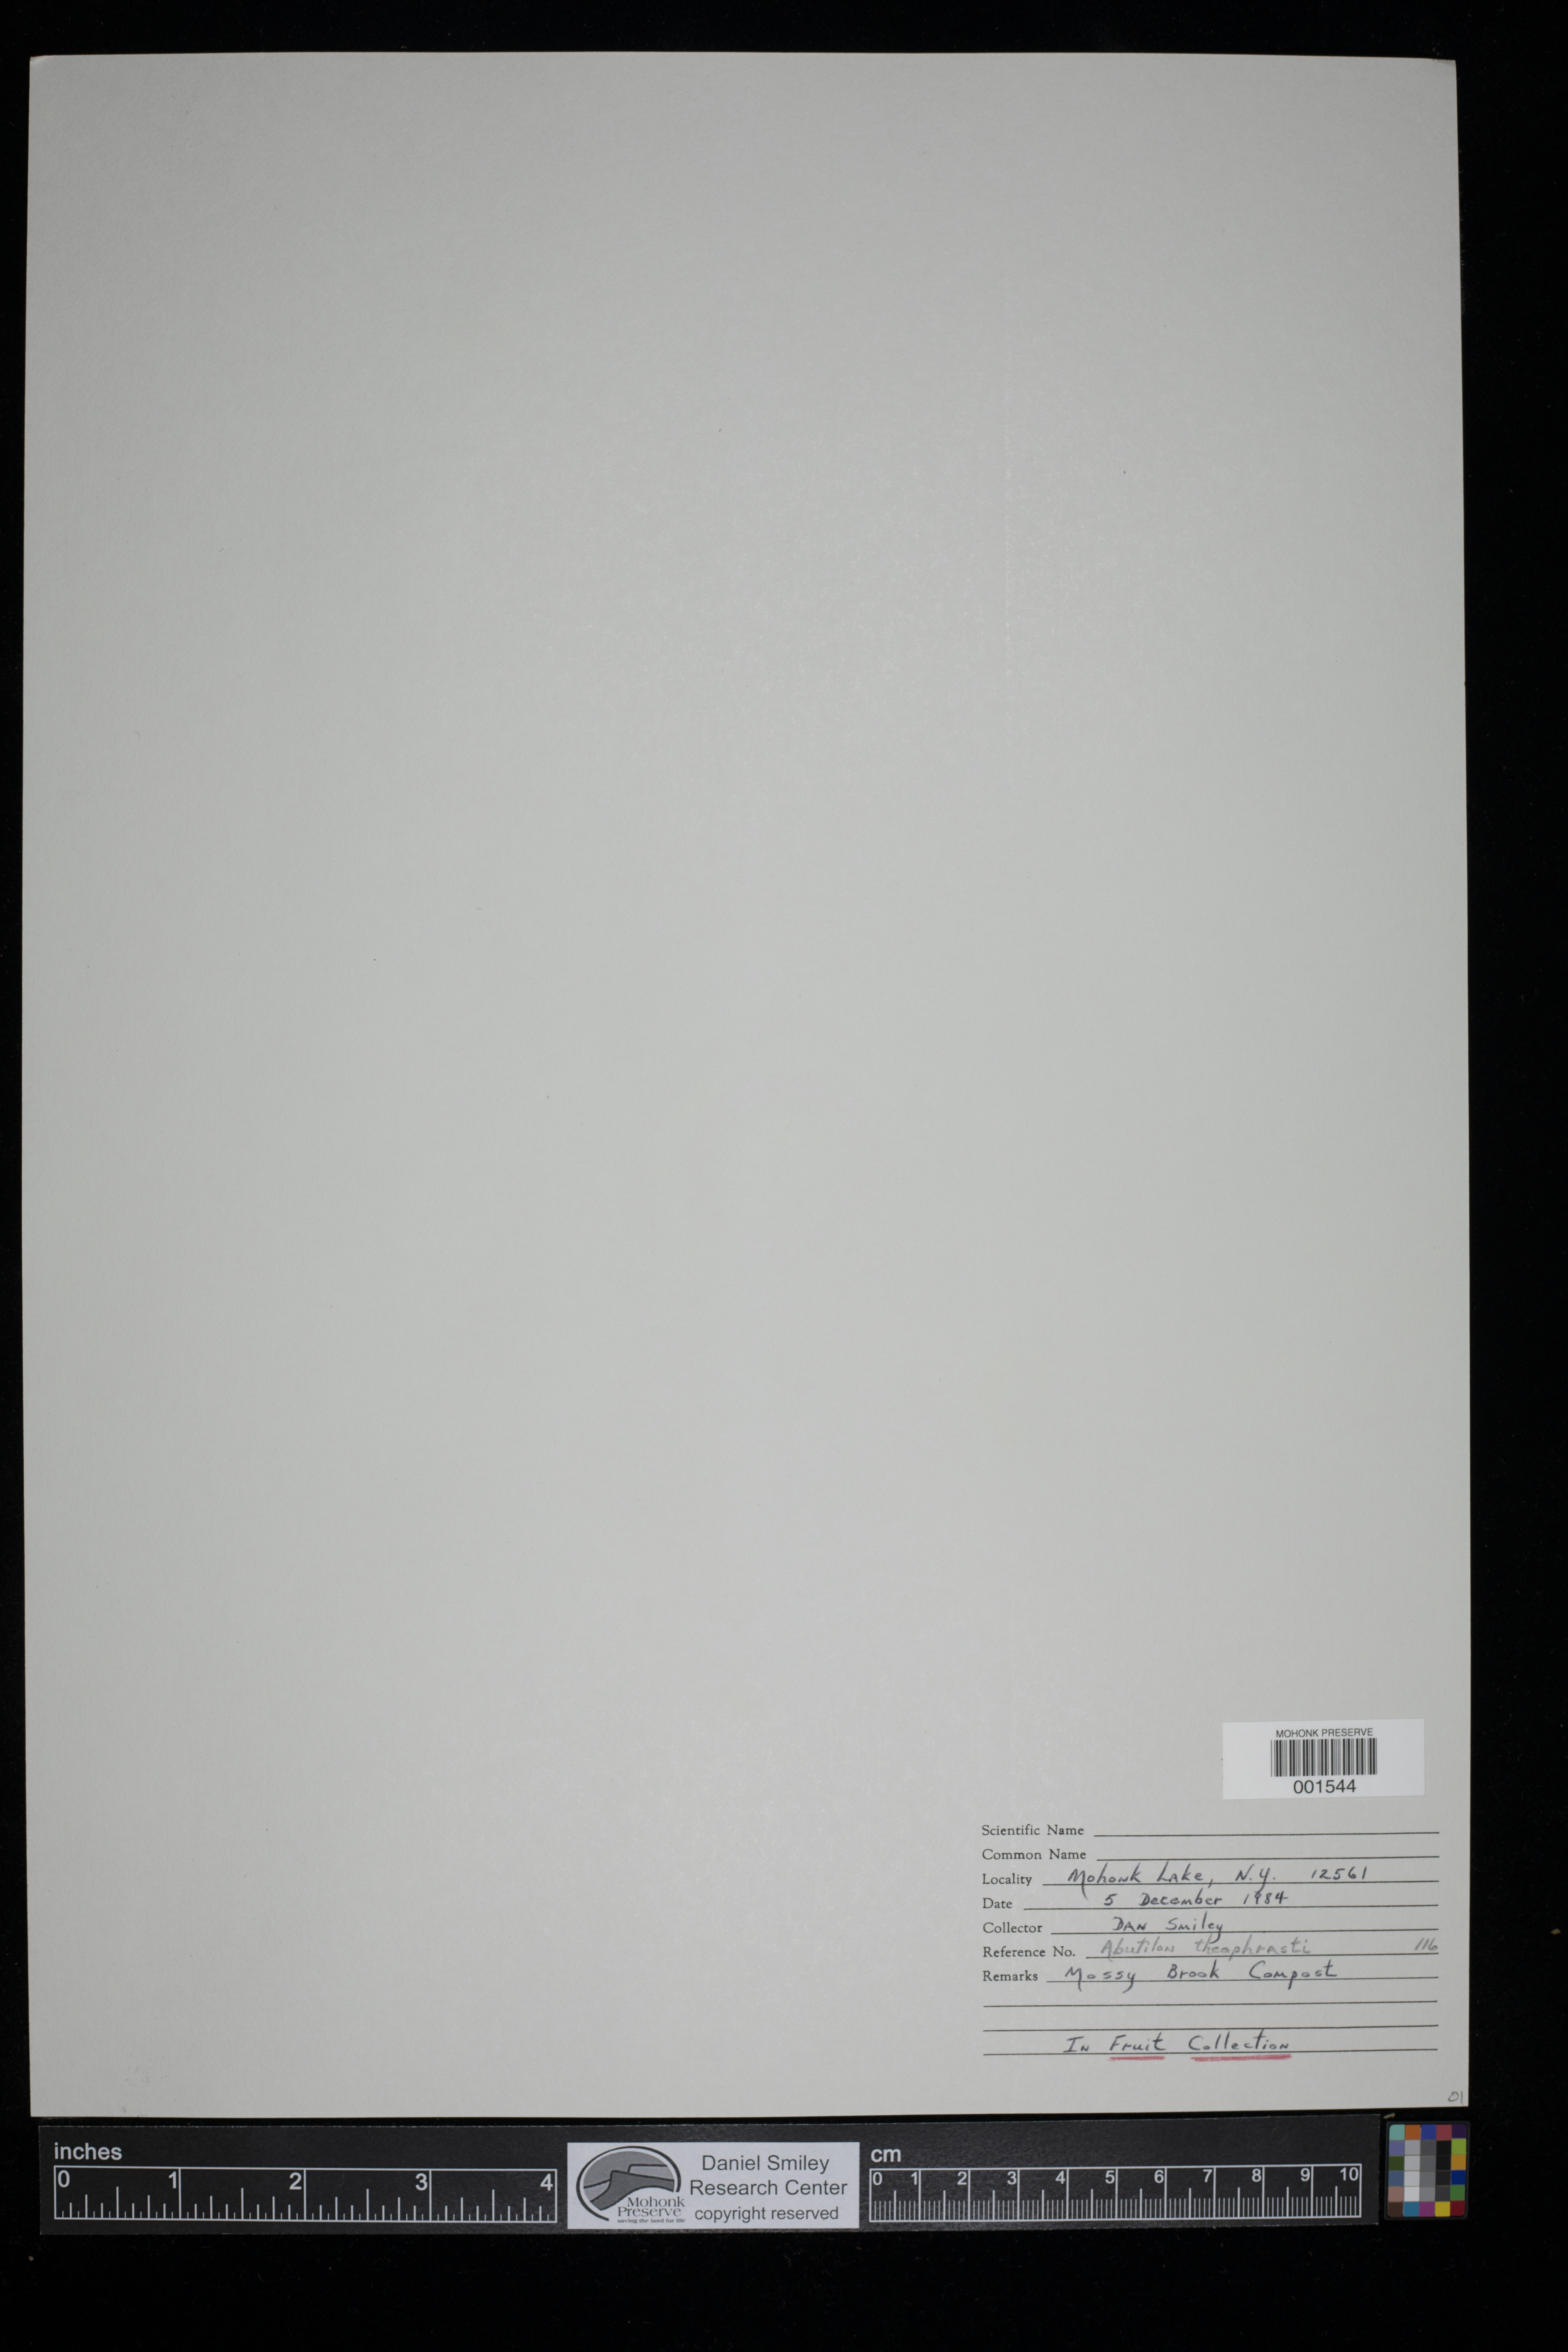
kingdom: Plantae
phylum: Tracheophyta
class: Magnoliopsida
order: Malvales
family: Malvaceae
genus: Abutilon
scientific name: Abutilon theophrasti
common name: Velvetleaf
